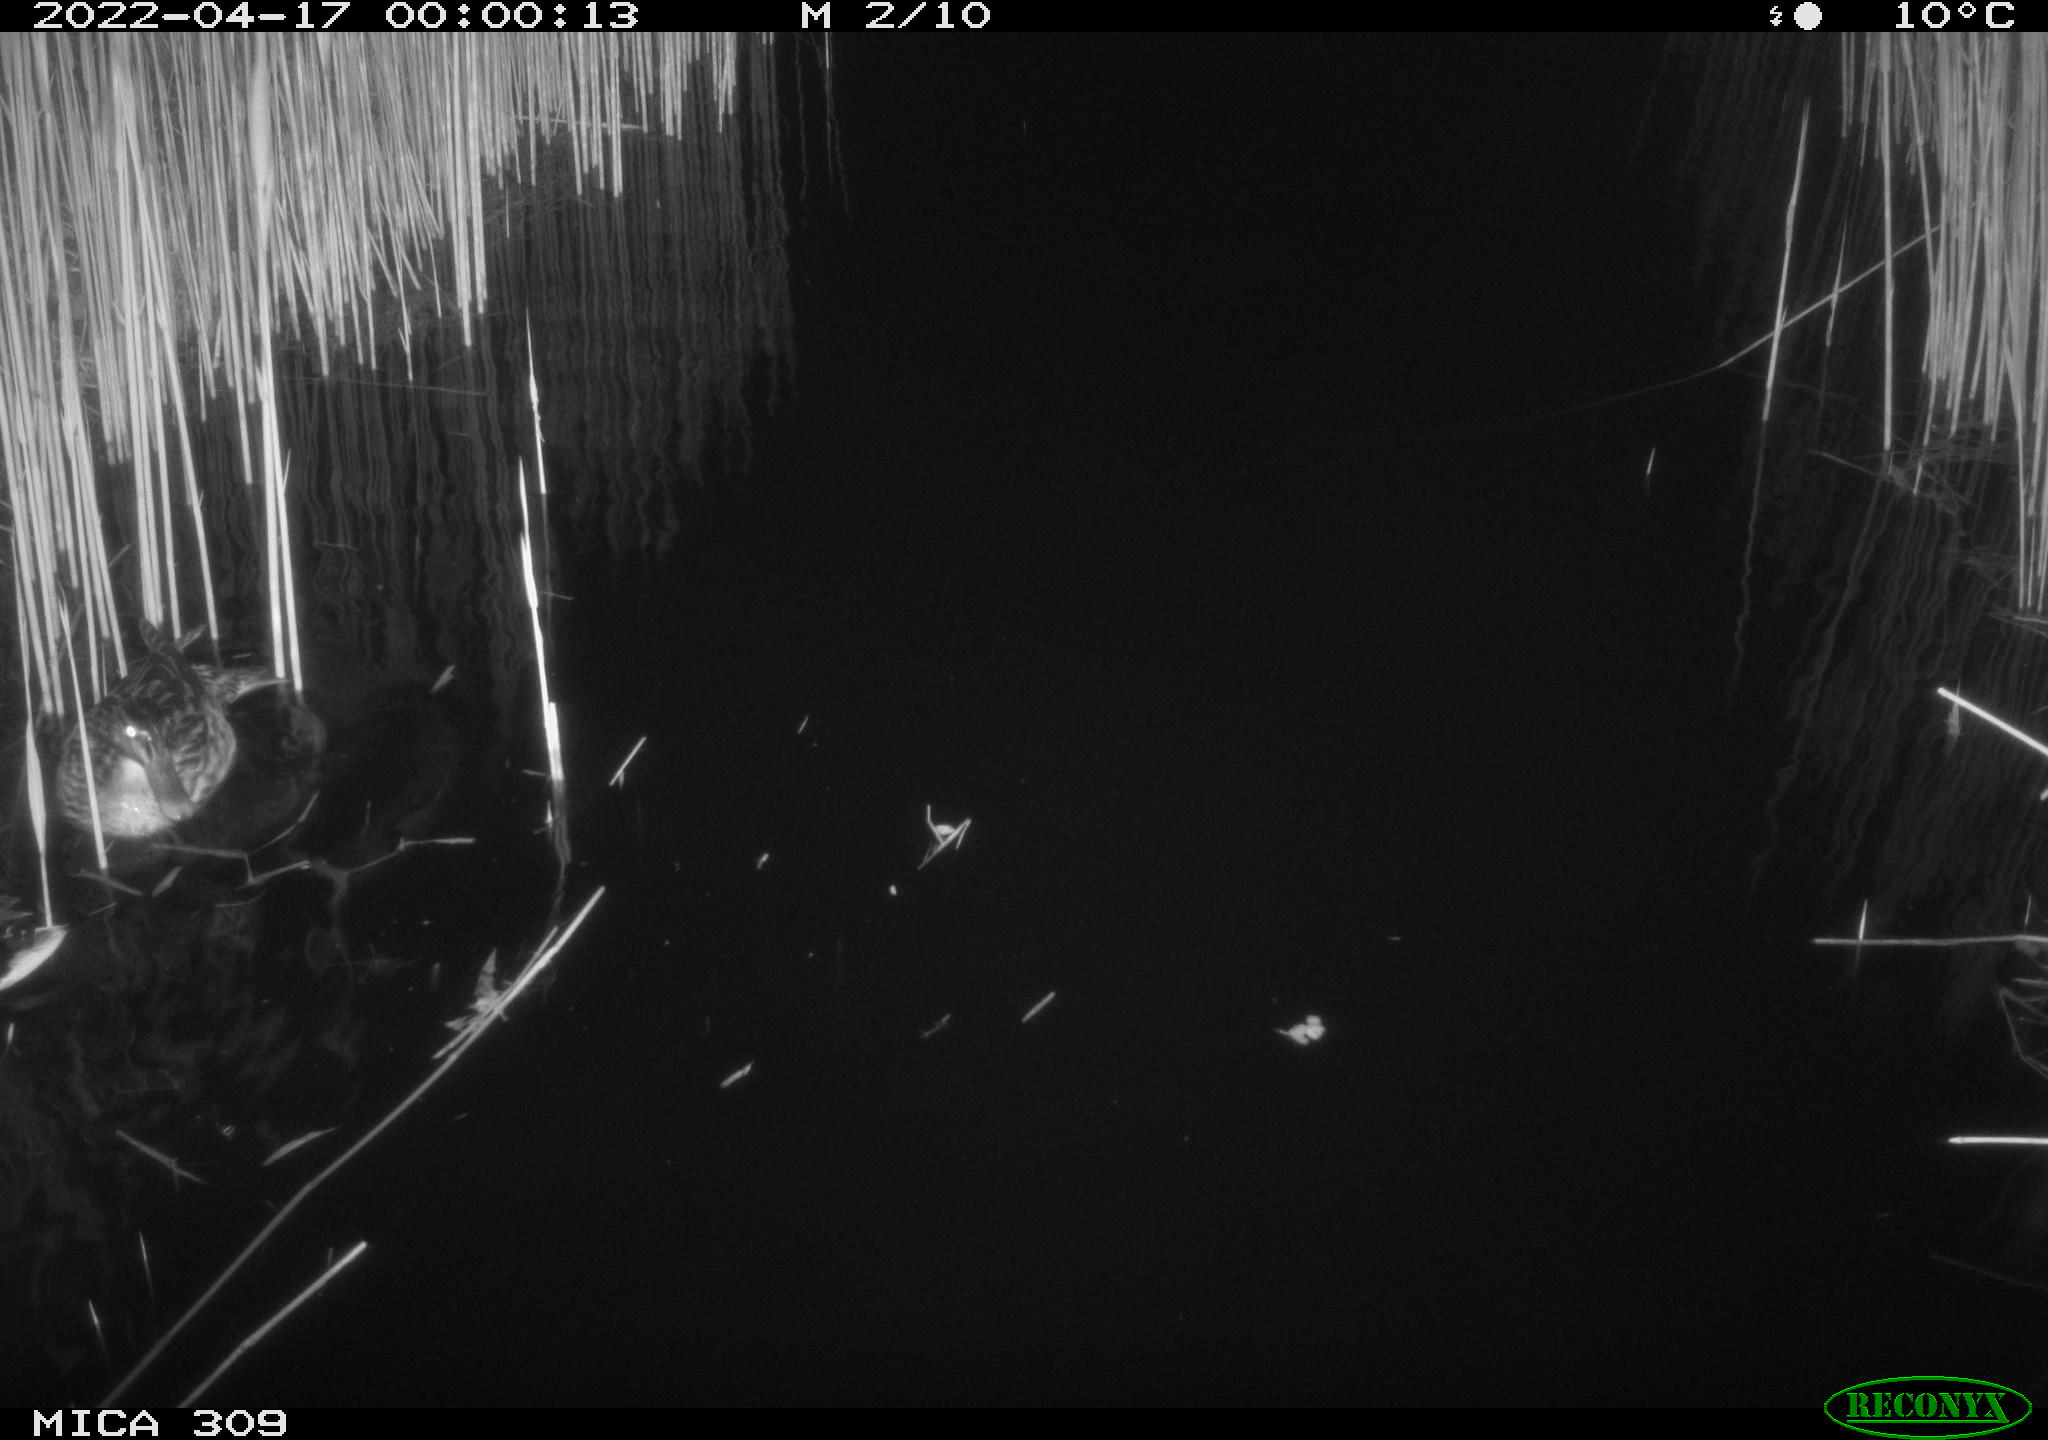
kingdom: Animalia
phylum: Chordata
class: Aves
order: Anseriformes
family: Anatidae
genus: Anas
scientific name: Anas platyrhynchos
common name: Mallard
